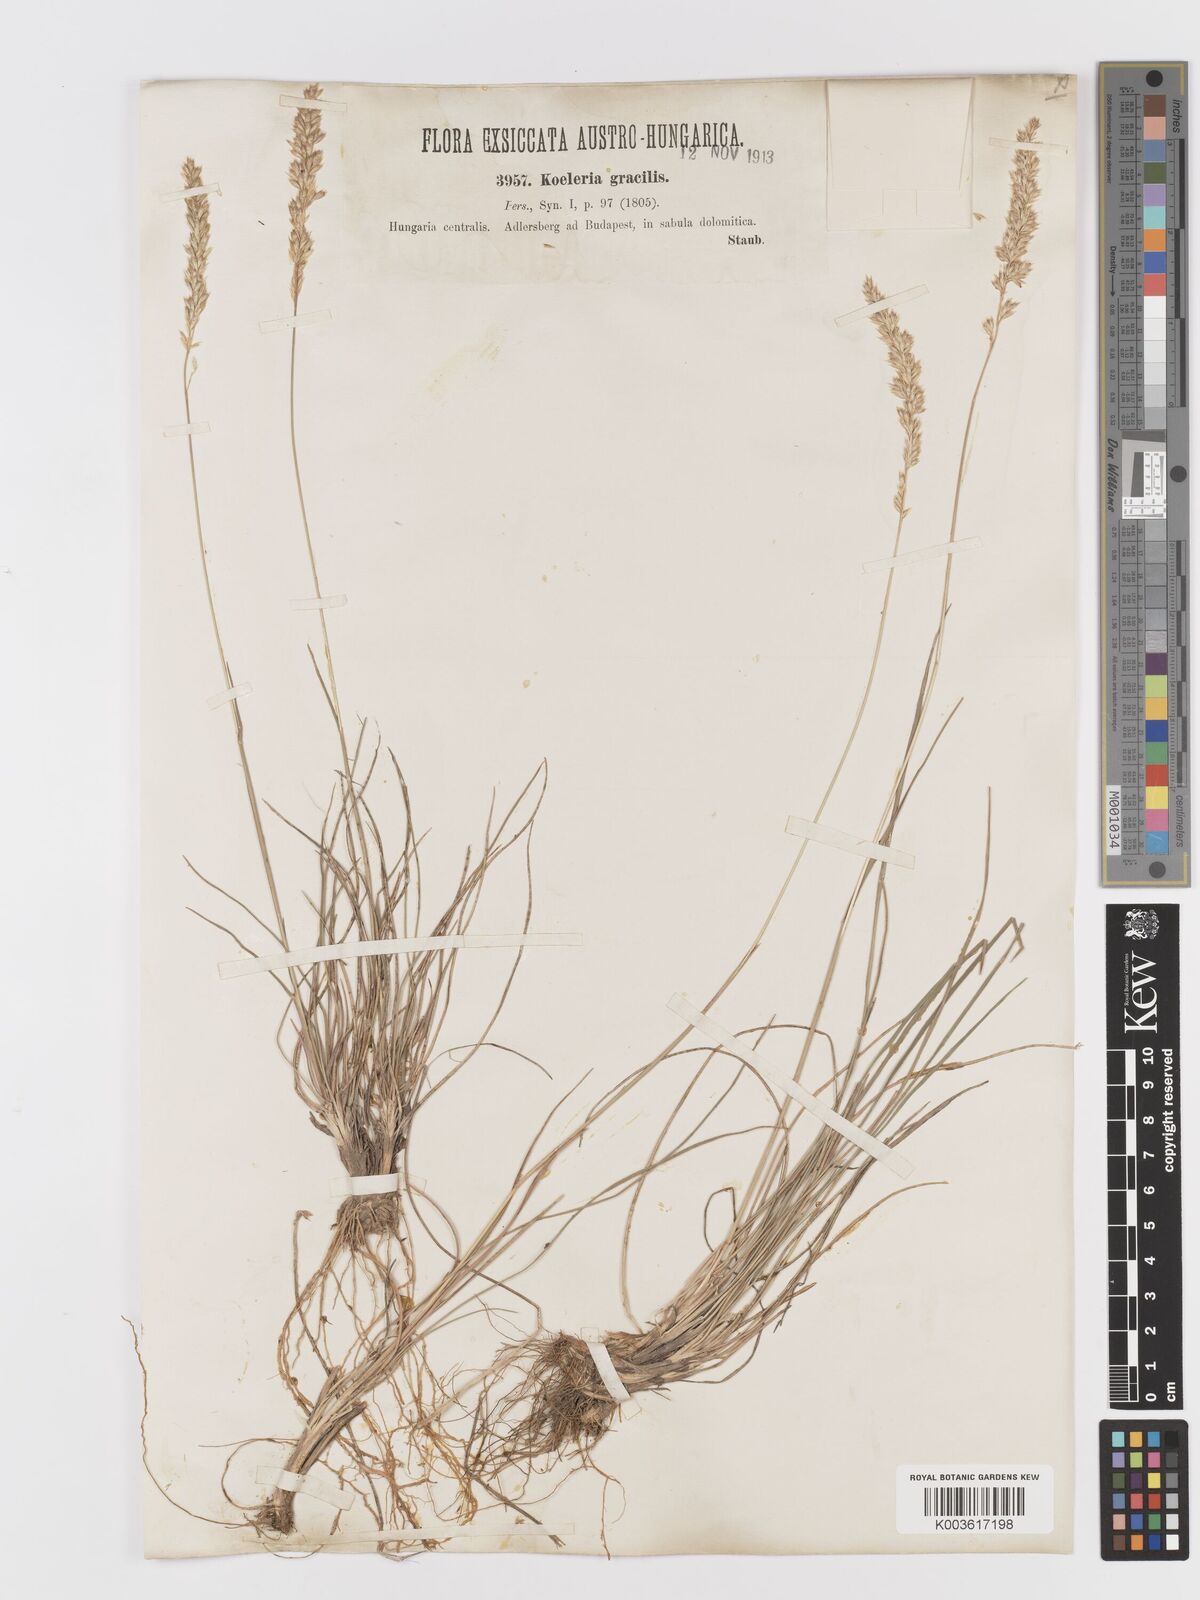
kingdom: Plantae
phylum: Tracheophyta
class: Liliopsida
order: Poales
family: Poaceae
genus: Koeleria
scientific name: Koeleria
